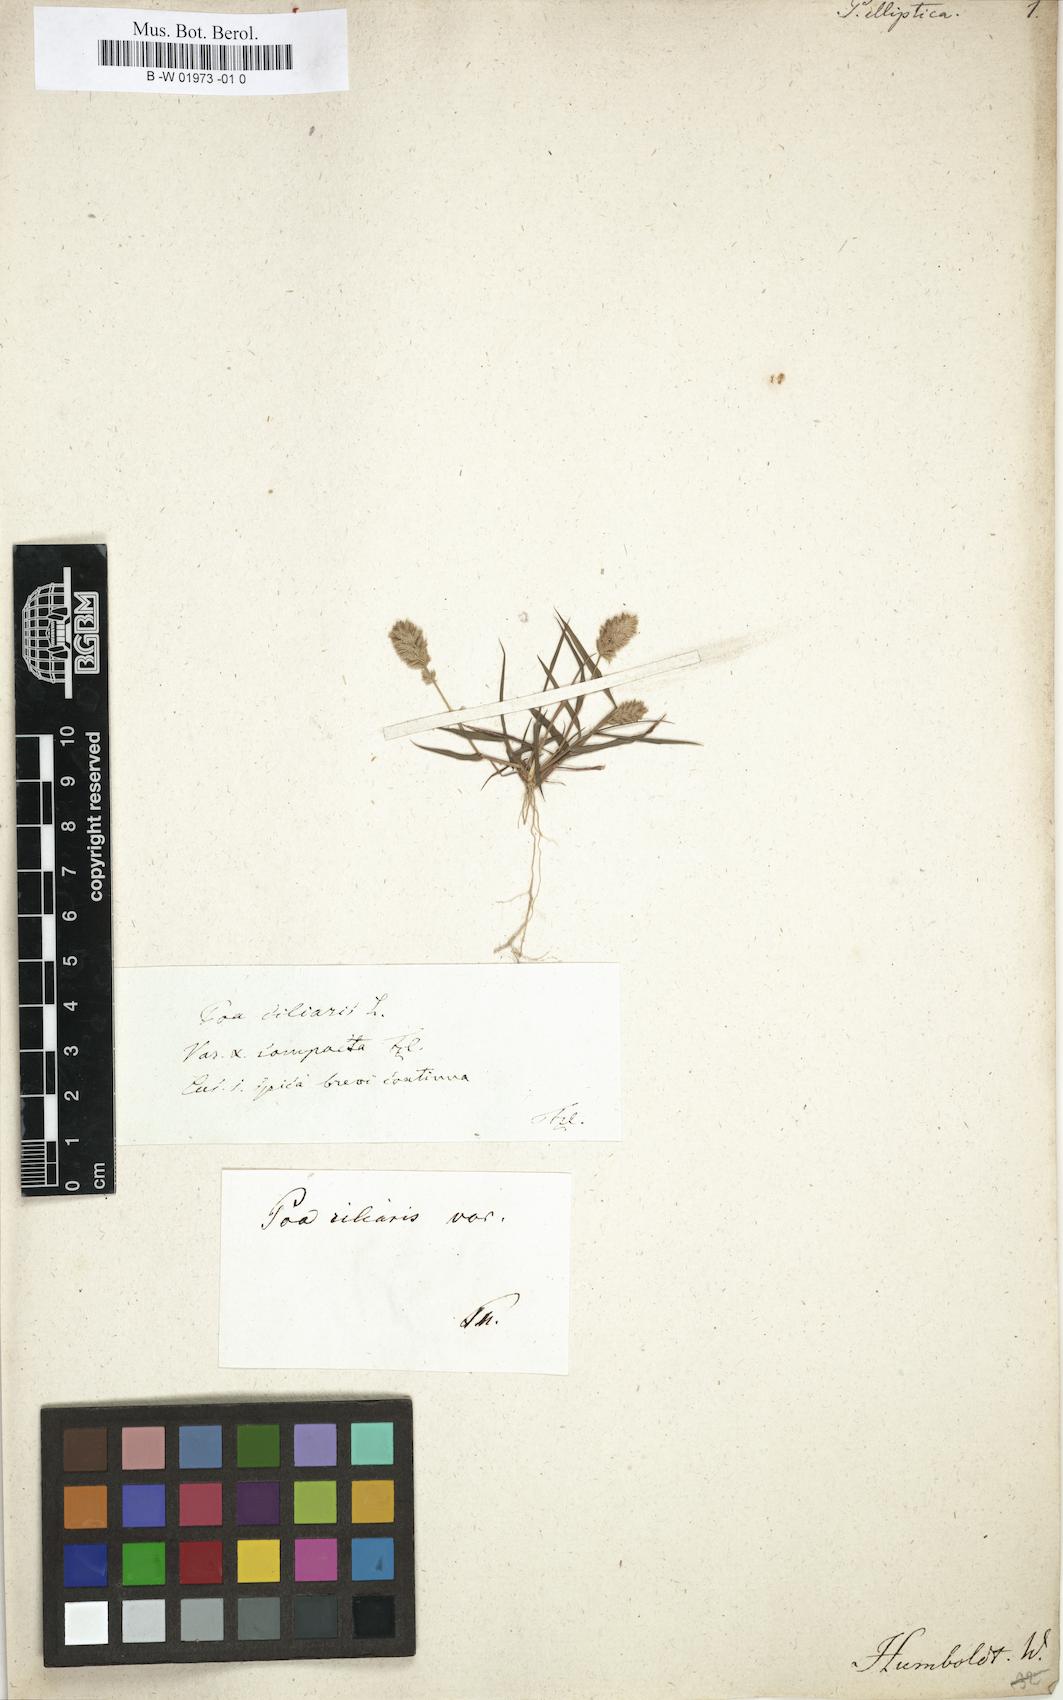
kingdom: Plantae
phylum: Tracheophyta
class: Liliopsida
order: Poales
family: Poaceae
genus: Eragrostis
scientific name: Eragrostis ciliaris
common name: Gophertail lovegrass
